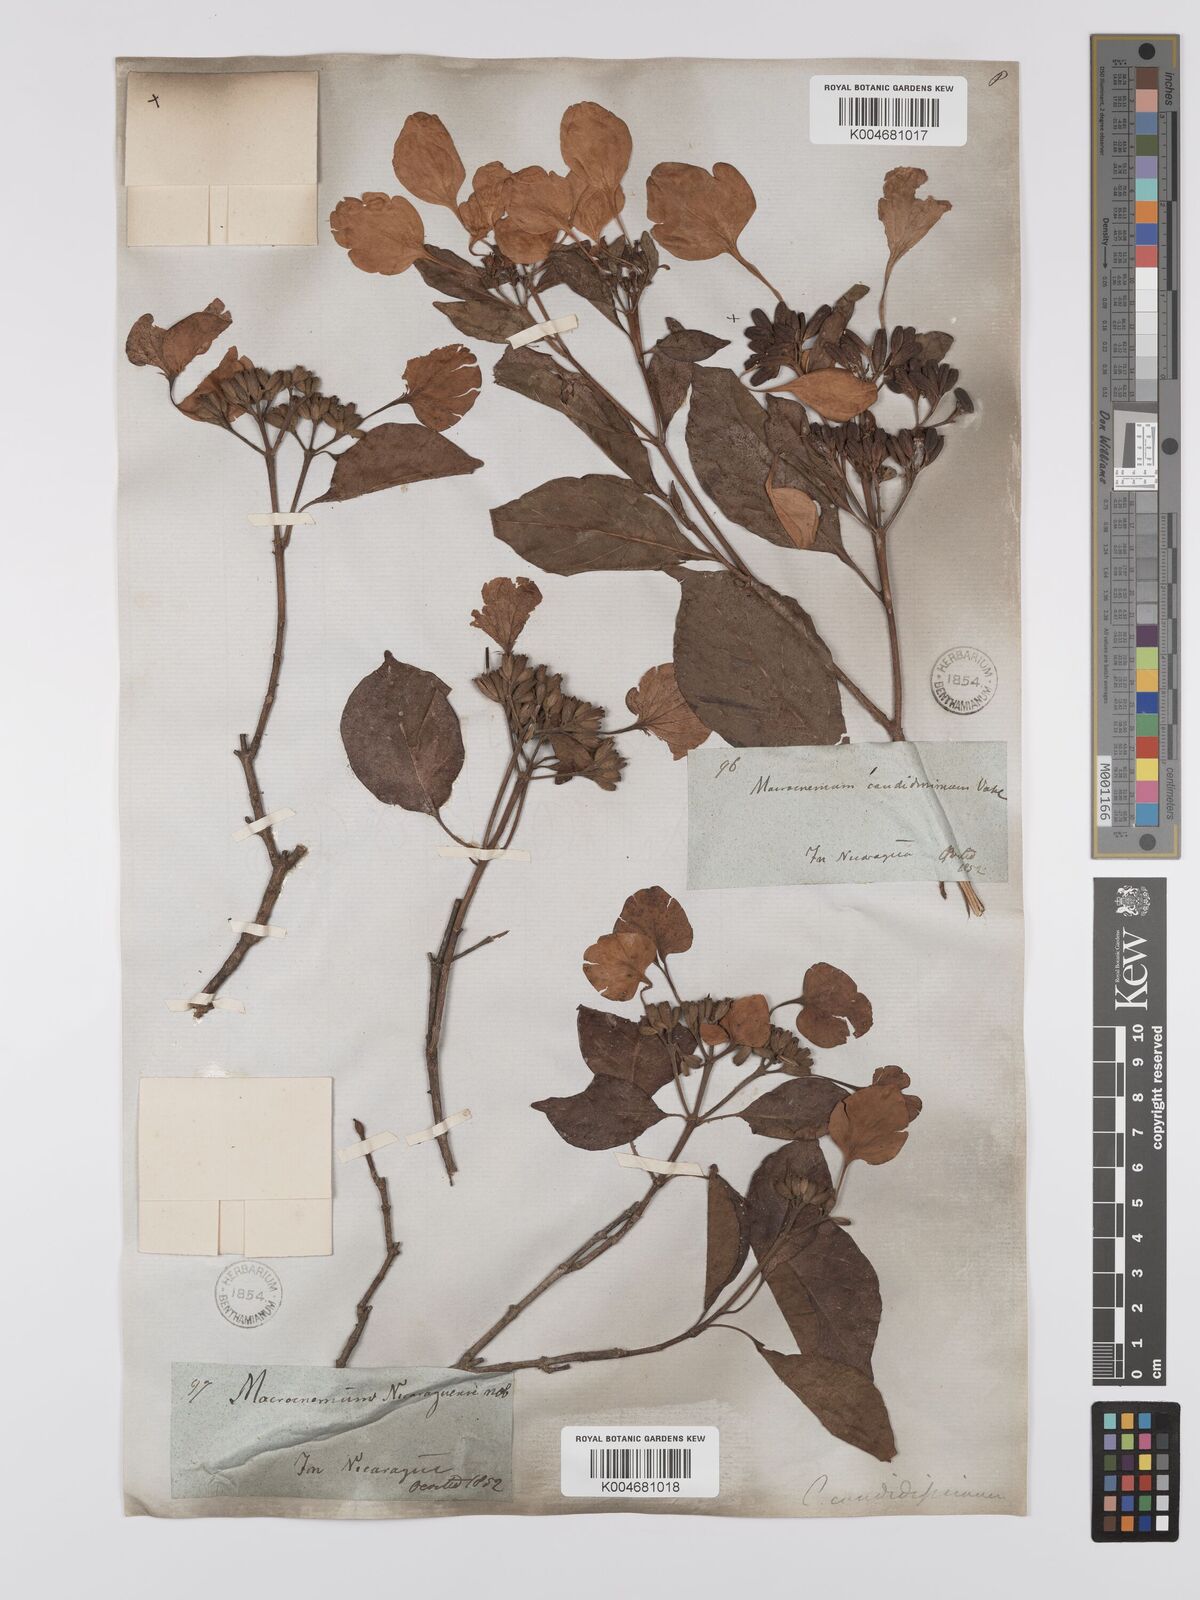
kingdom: Plantae
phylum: Tracheophyta
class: Magnoliopsida
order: Gentianales
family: Rubiaceae
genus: Calycophyllum
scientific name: Calycophyllum candidissimum
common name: Dagame
